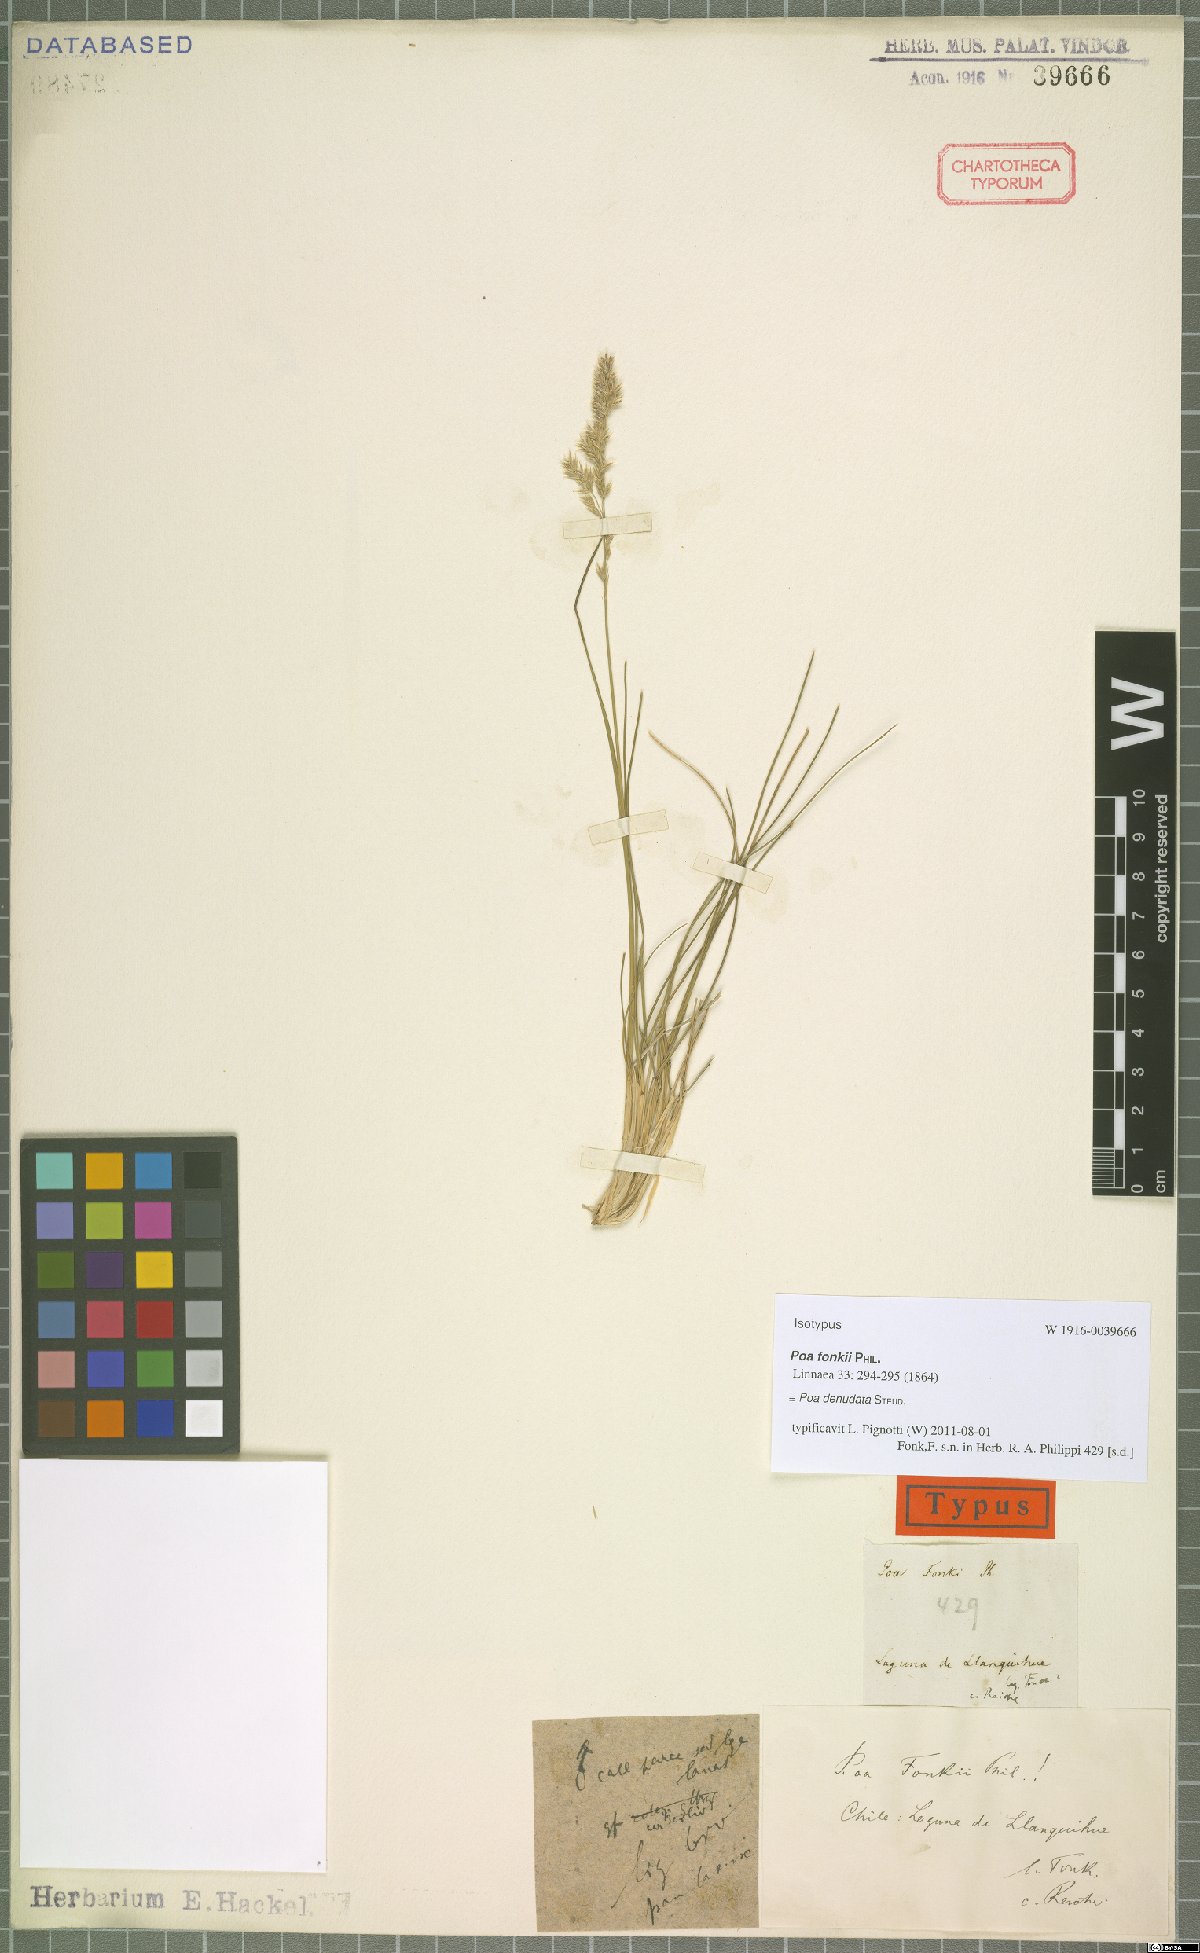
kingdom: Plantae
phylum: Tracheophyta
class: Liliopsida
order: Poales
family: Poaceae
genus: Poa
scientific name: Poa denudata
